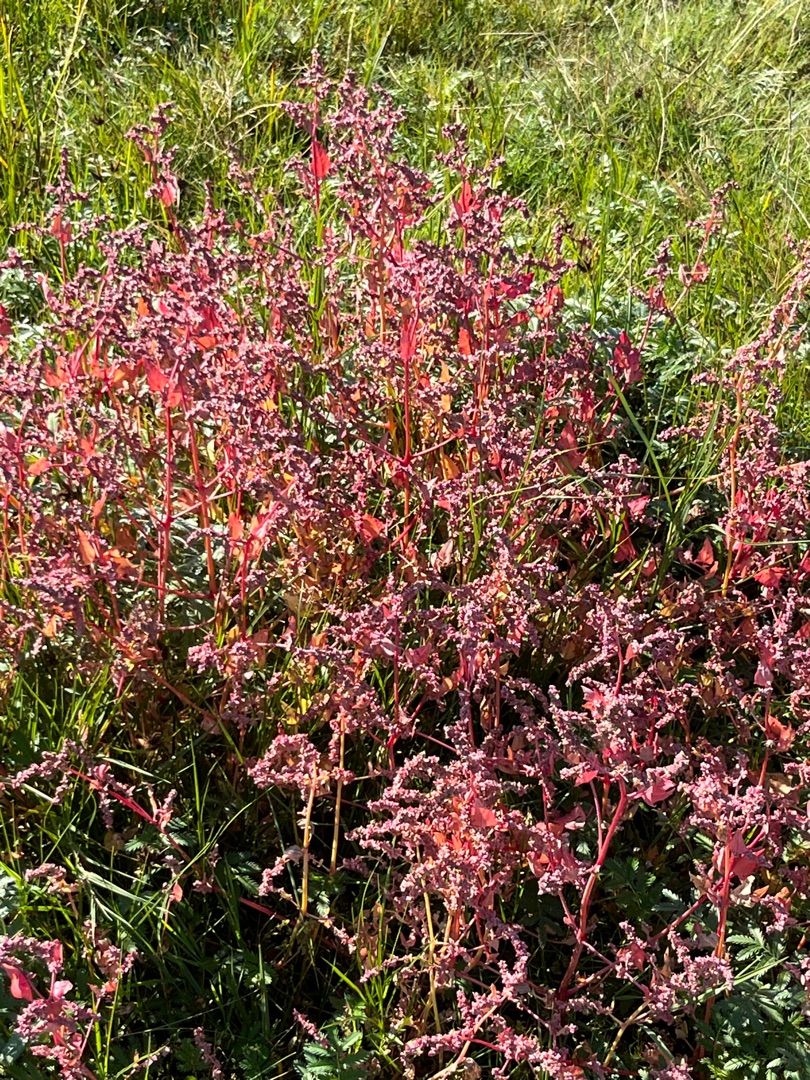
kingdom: Plantae
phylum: Tracheophyta
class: Magnoliopsida
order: Caryophyllales
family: Amaranthaceae
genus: Atriplex
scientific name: Atriplex prostrata
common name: Spyd-mælde
